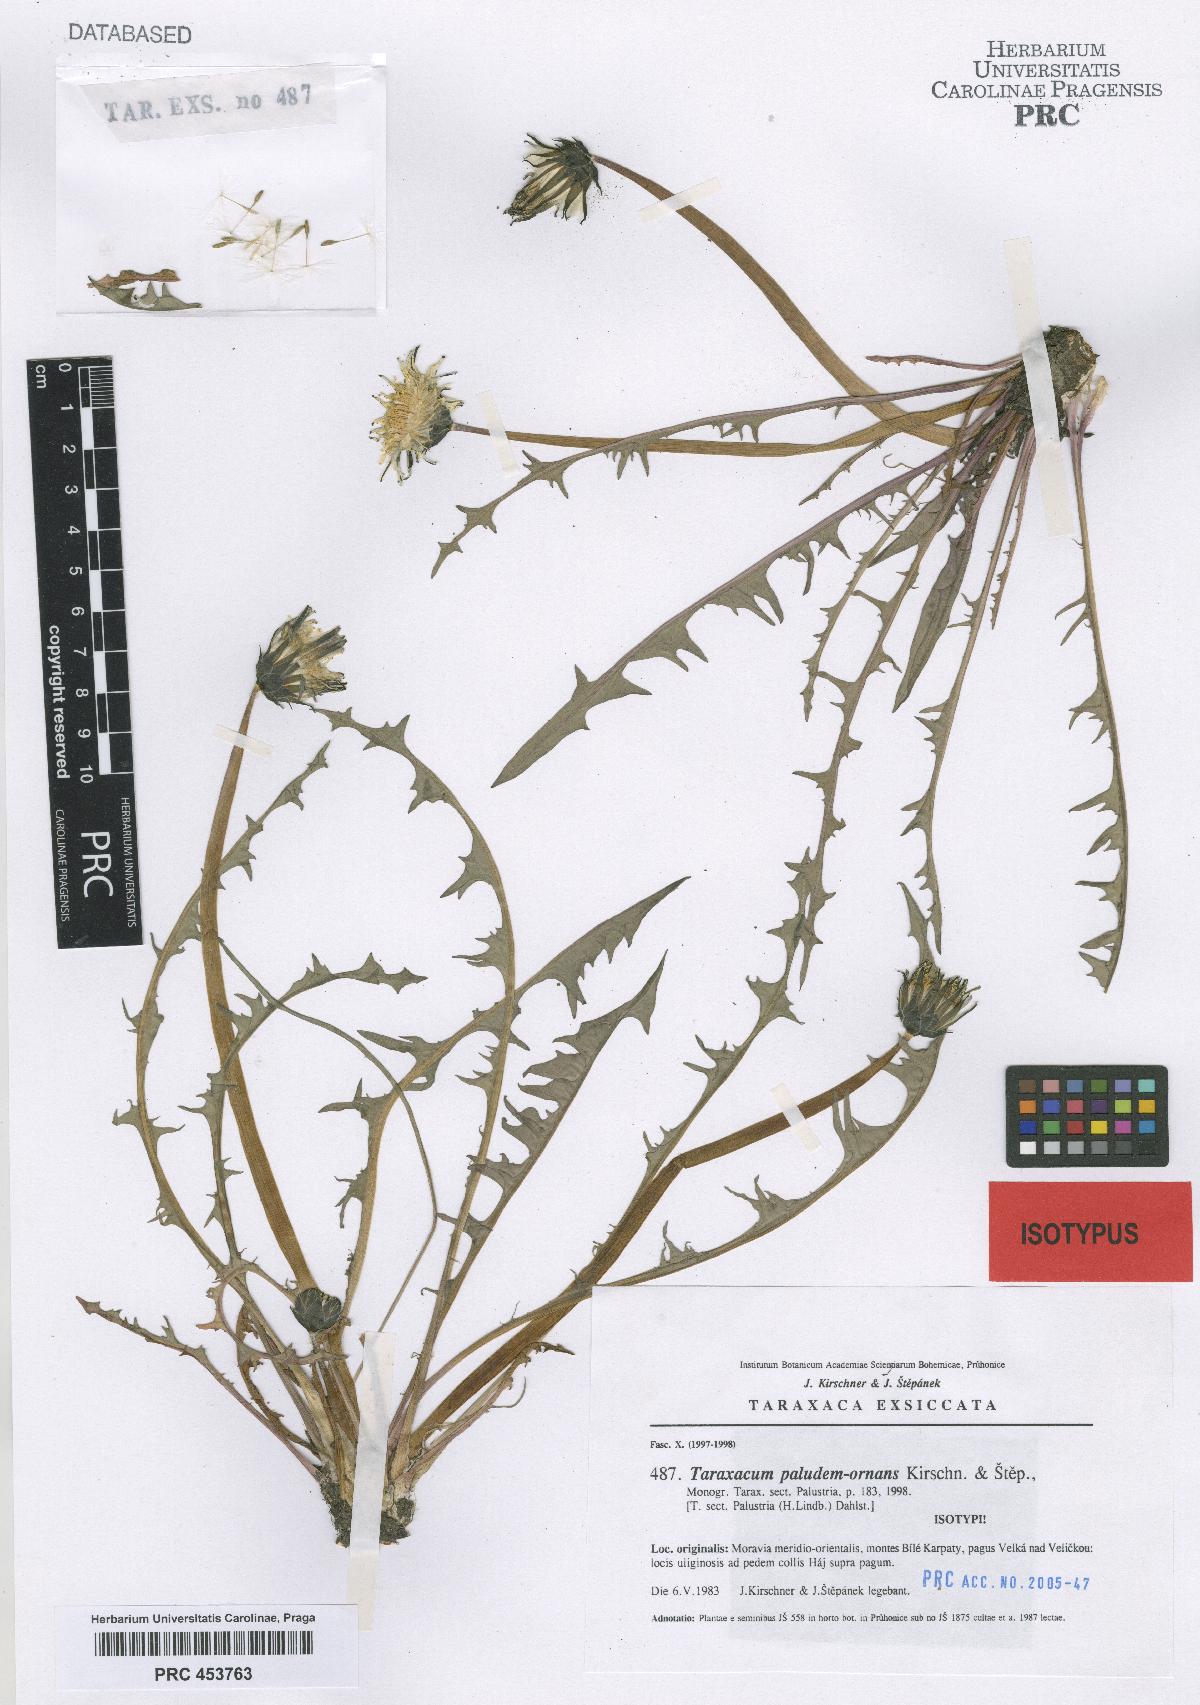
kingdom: Plantae
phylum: Tracheophyta
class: Magnoliopsida
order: Asterales
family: Asteraceae
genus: Taraxacum
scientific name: Taraxacum paludem-ornans
